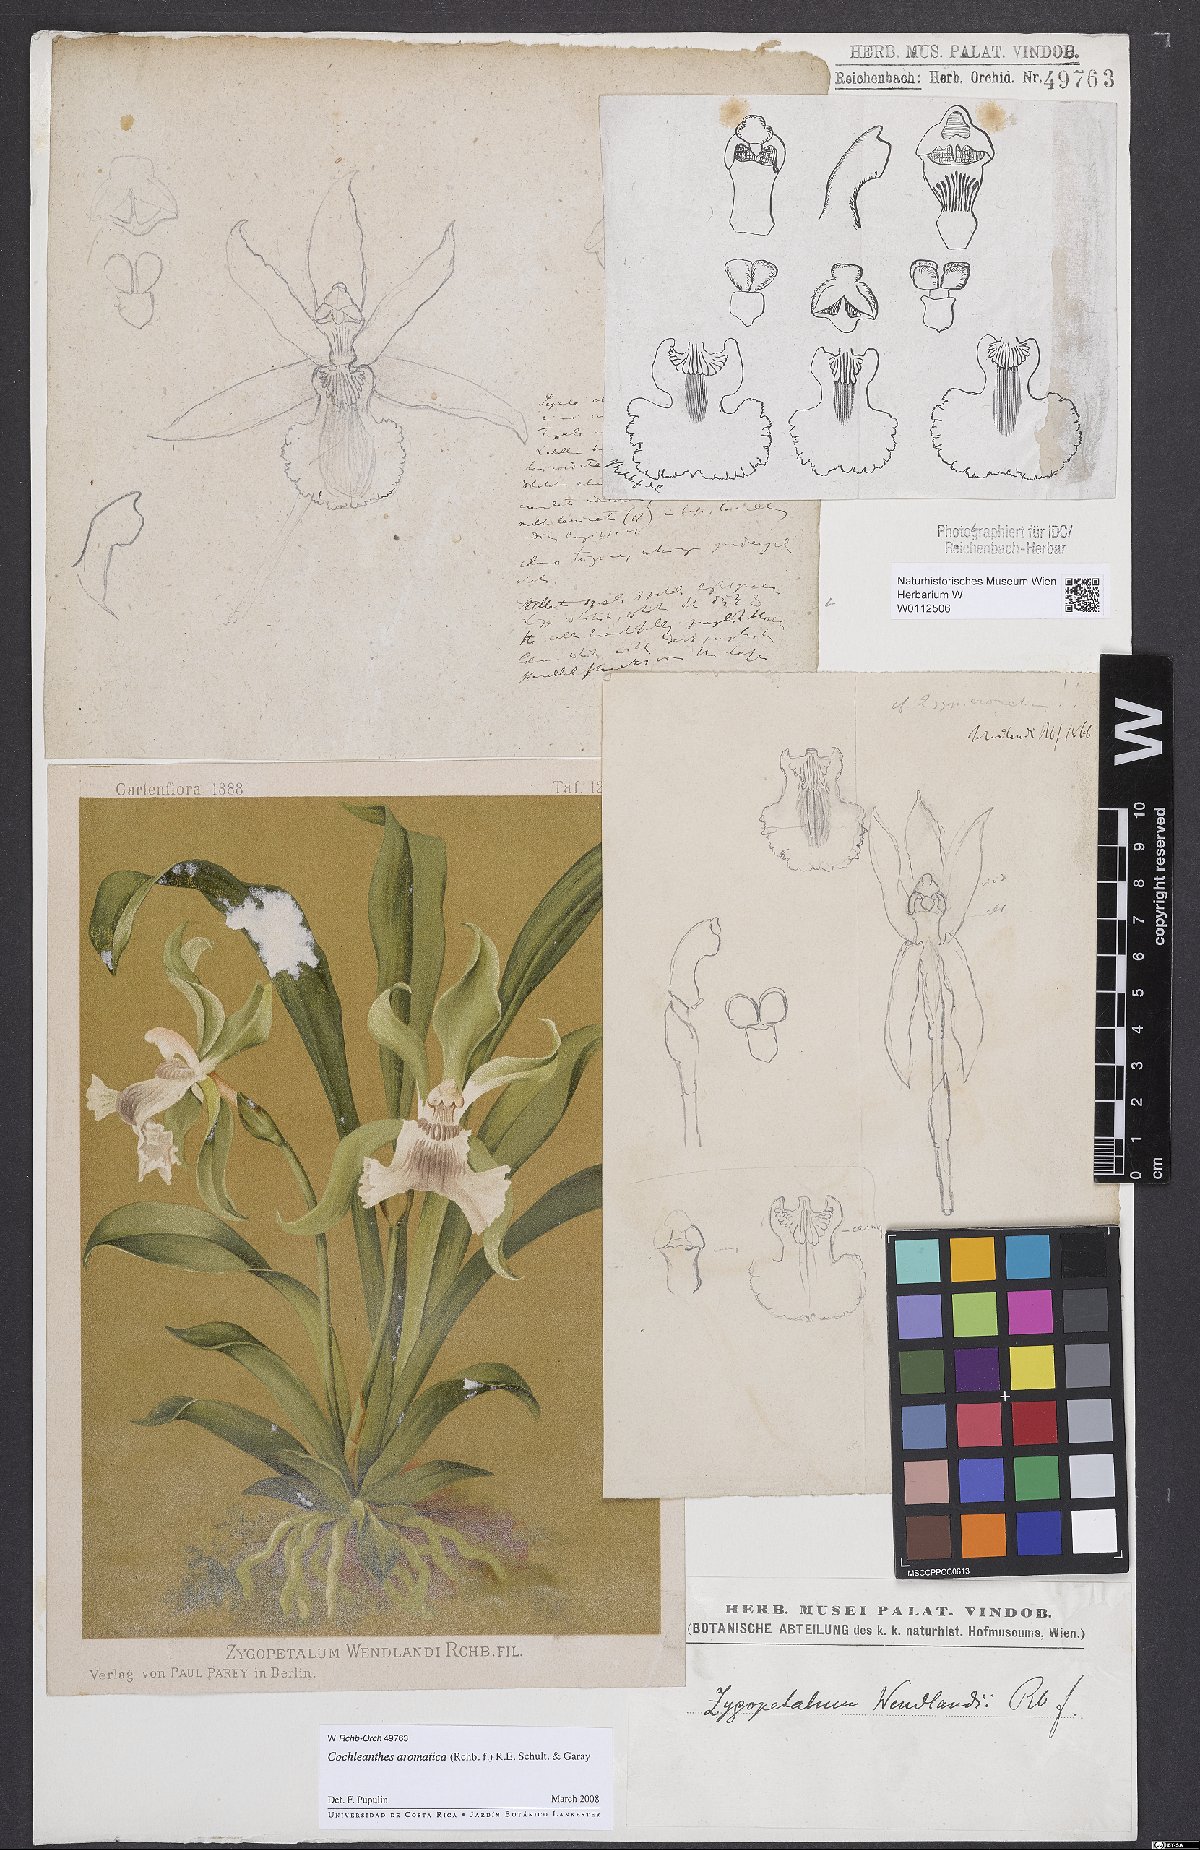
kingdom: Plantae
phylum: Tracheophyta
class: Liliopsida
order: Asparagales
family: Orchidaceae
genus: Cochleanthes
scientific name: Cochleanthes aromatica
